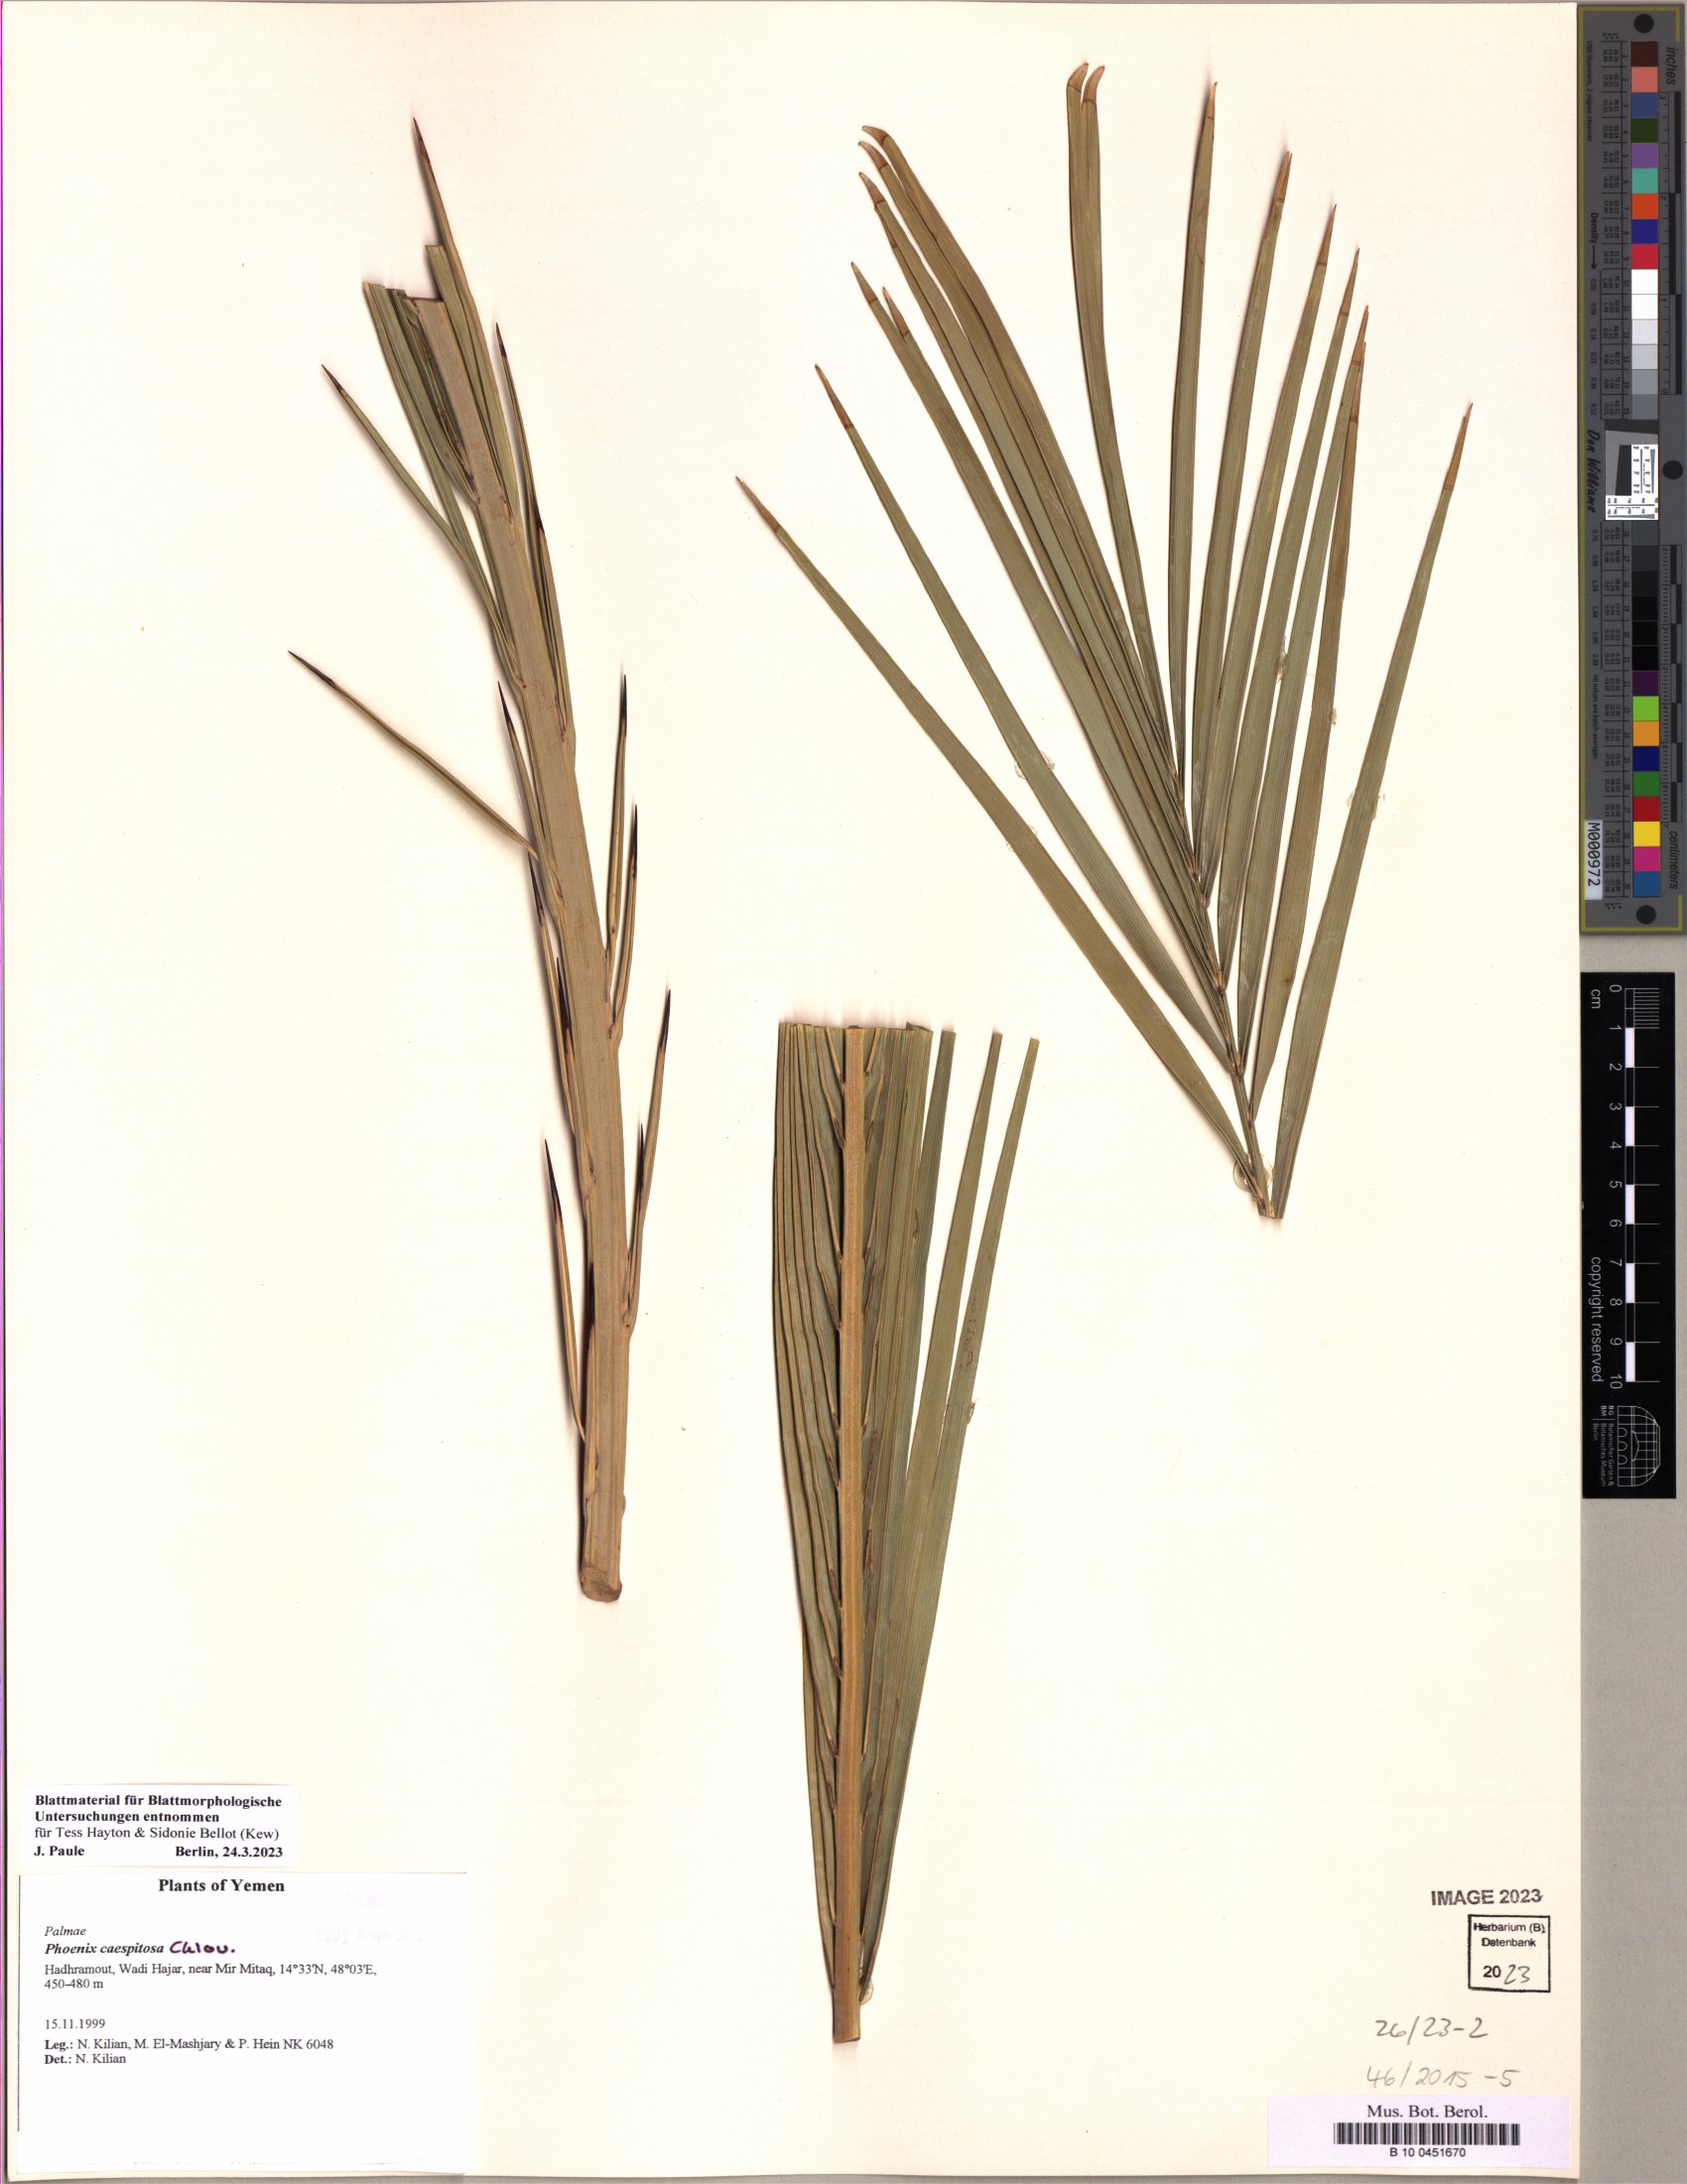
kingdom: Plantae
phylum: Tracheophyta
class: Liliopsida
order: Arecales
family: Arecaceae
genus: Phoenix
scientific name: Phoenix caespitosa
